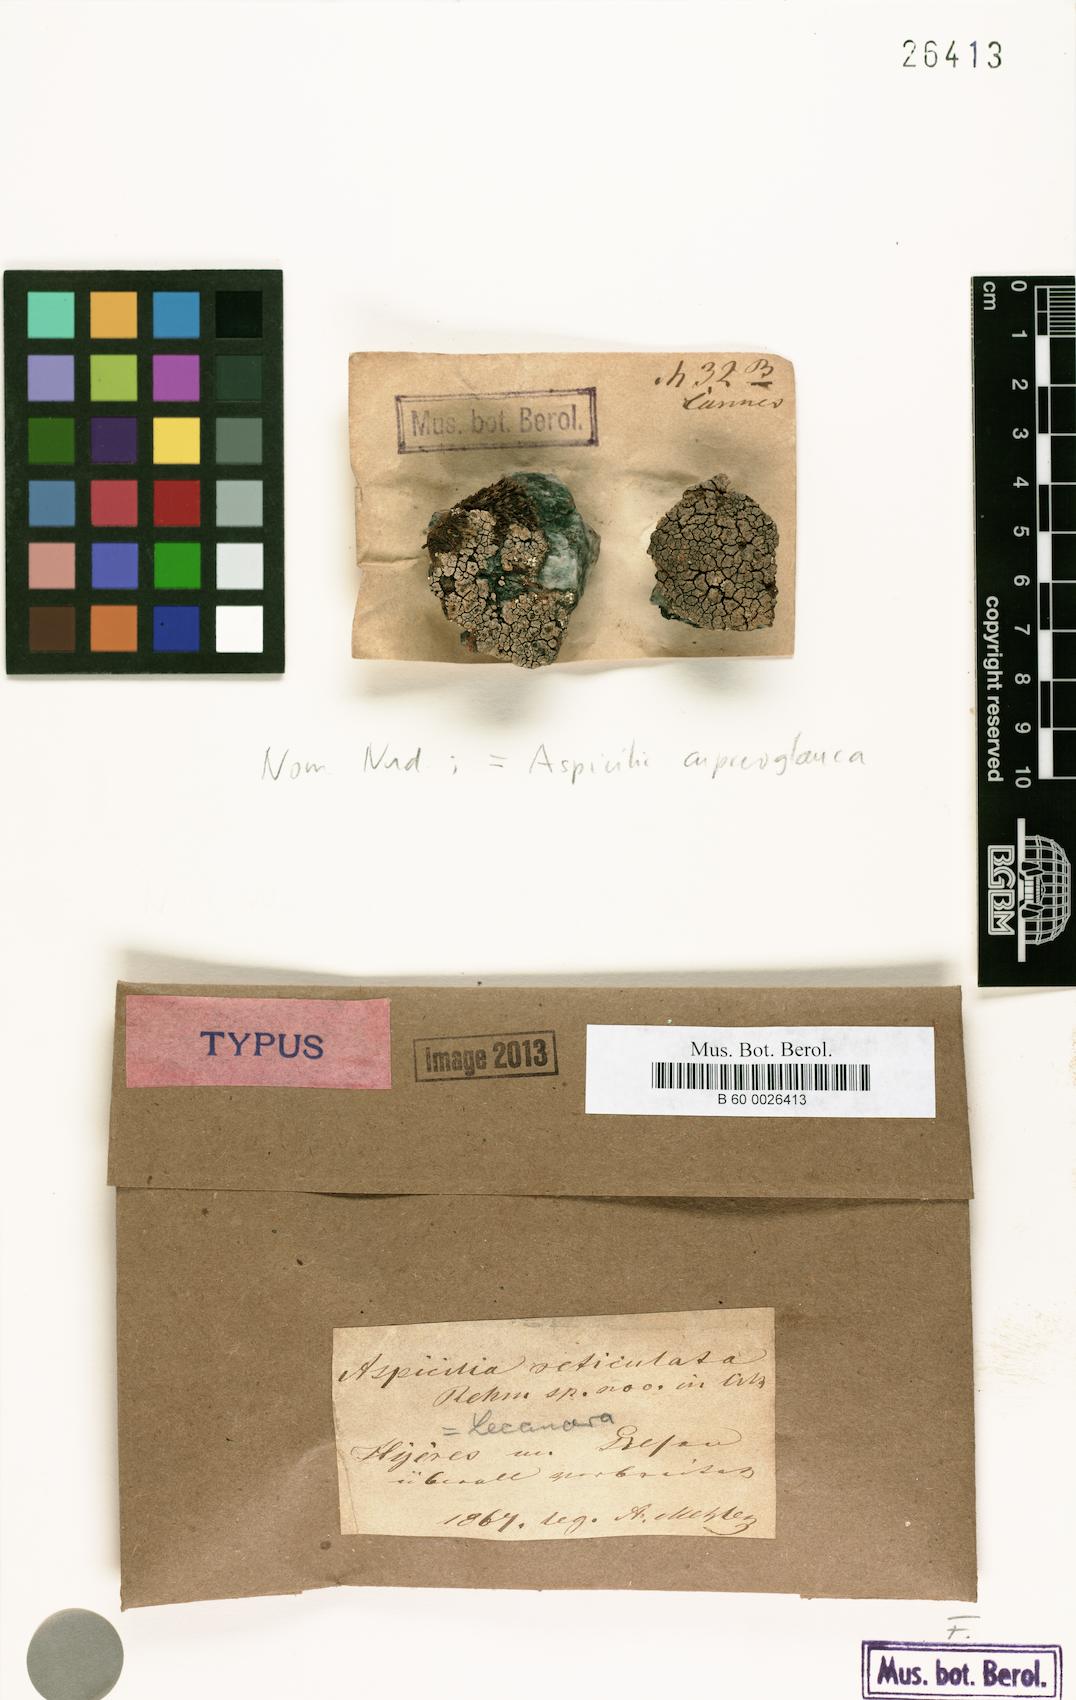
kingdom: Fungi
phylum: Ascomycota
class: Lecanoromycetes
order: Hymeneliales
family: Hymeneliaceae
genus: Aspicilia
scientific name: Aspicilia
